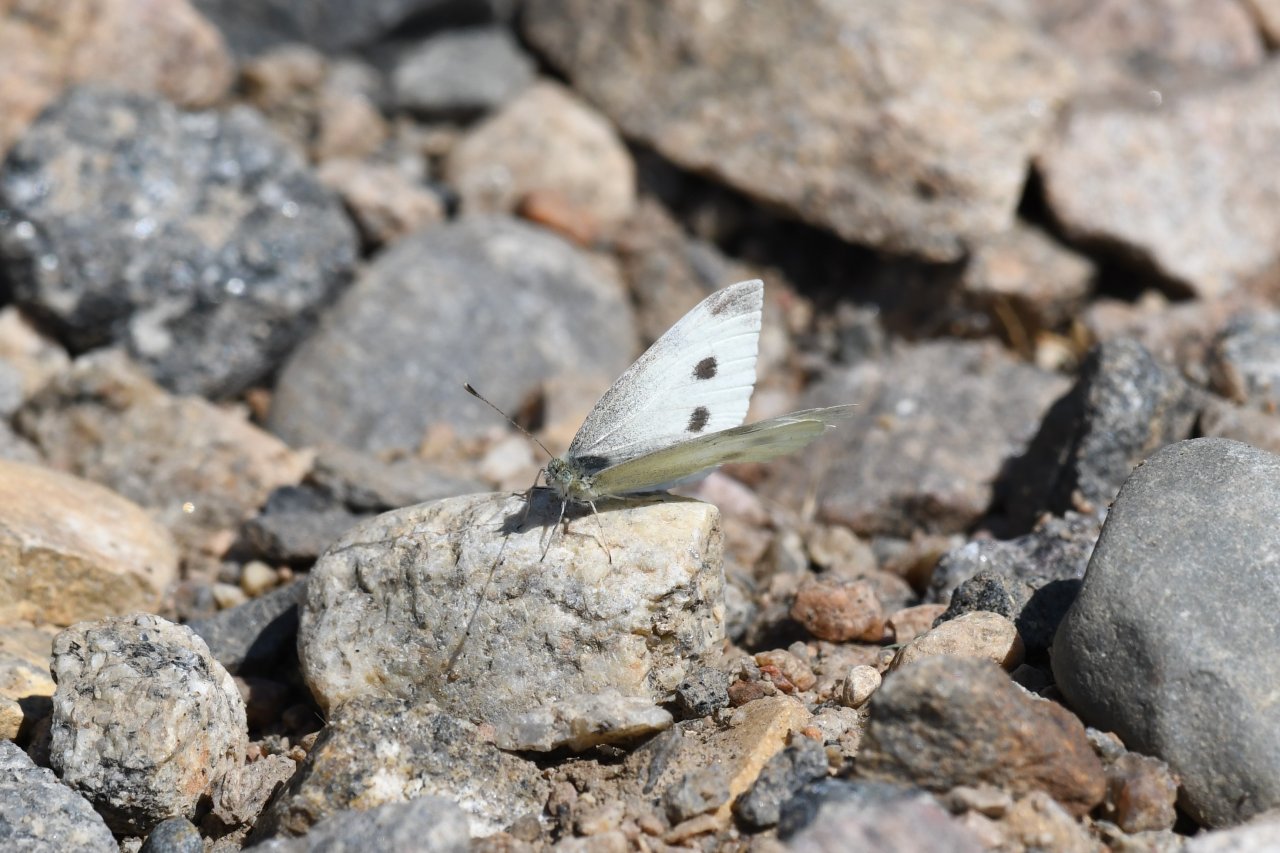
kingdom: Animalia
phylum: Arthropoda
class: Insecta
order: Lepidoptera
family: Pieridae
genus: Pieris
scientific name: Pieris rapae
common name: Cabbage White
